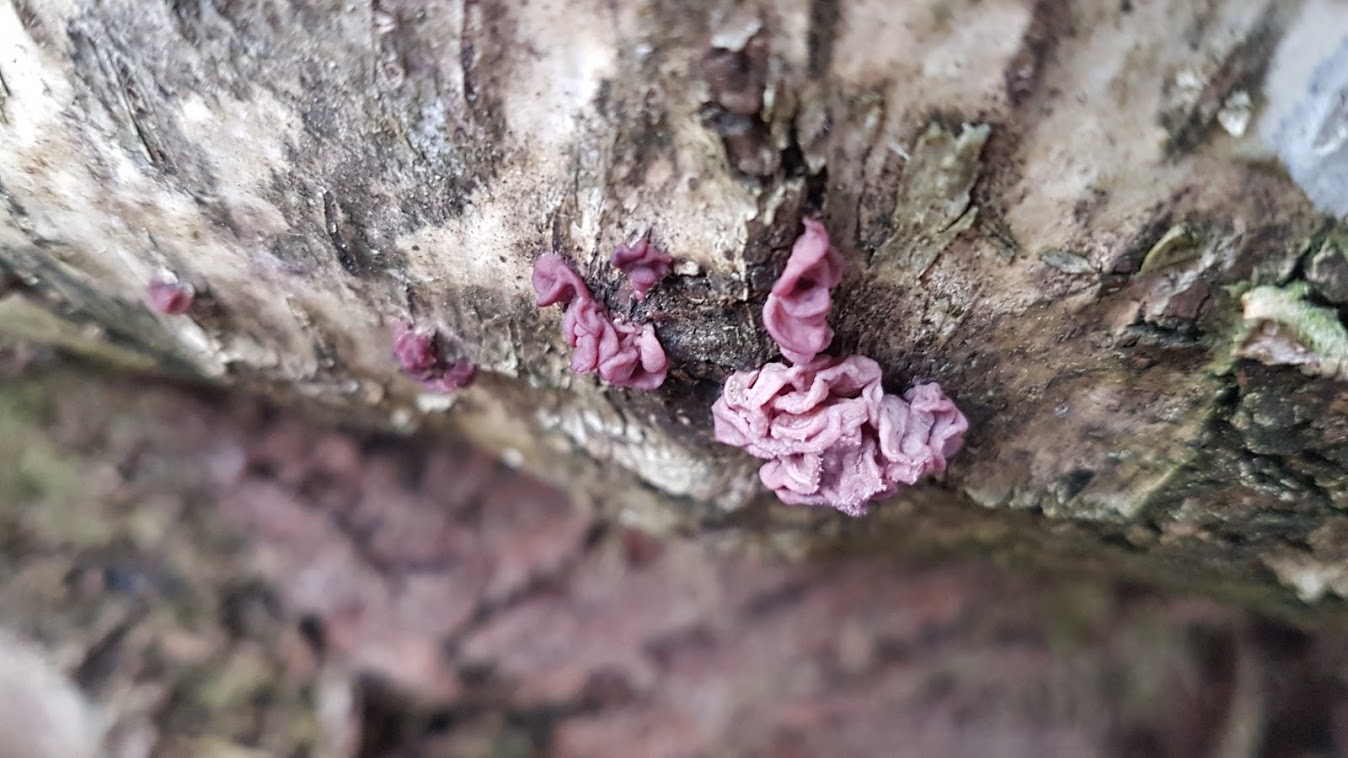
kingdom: Fungi
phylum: Ascomycota
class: Leotiomycetes
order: Helotiales
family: Gelatinodiscaceae
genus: Ascocoryne
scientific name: Ascocoryne sarcoides
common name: rødlilla sejskive
